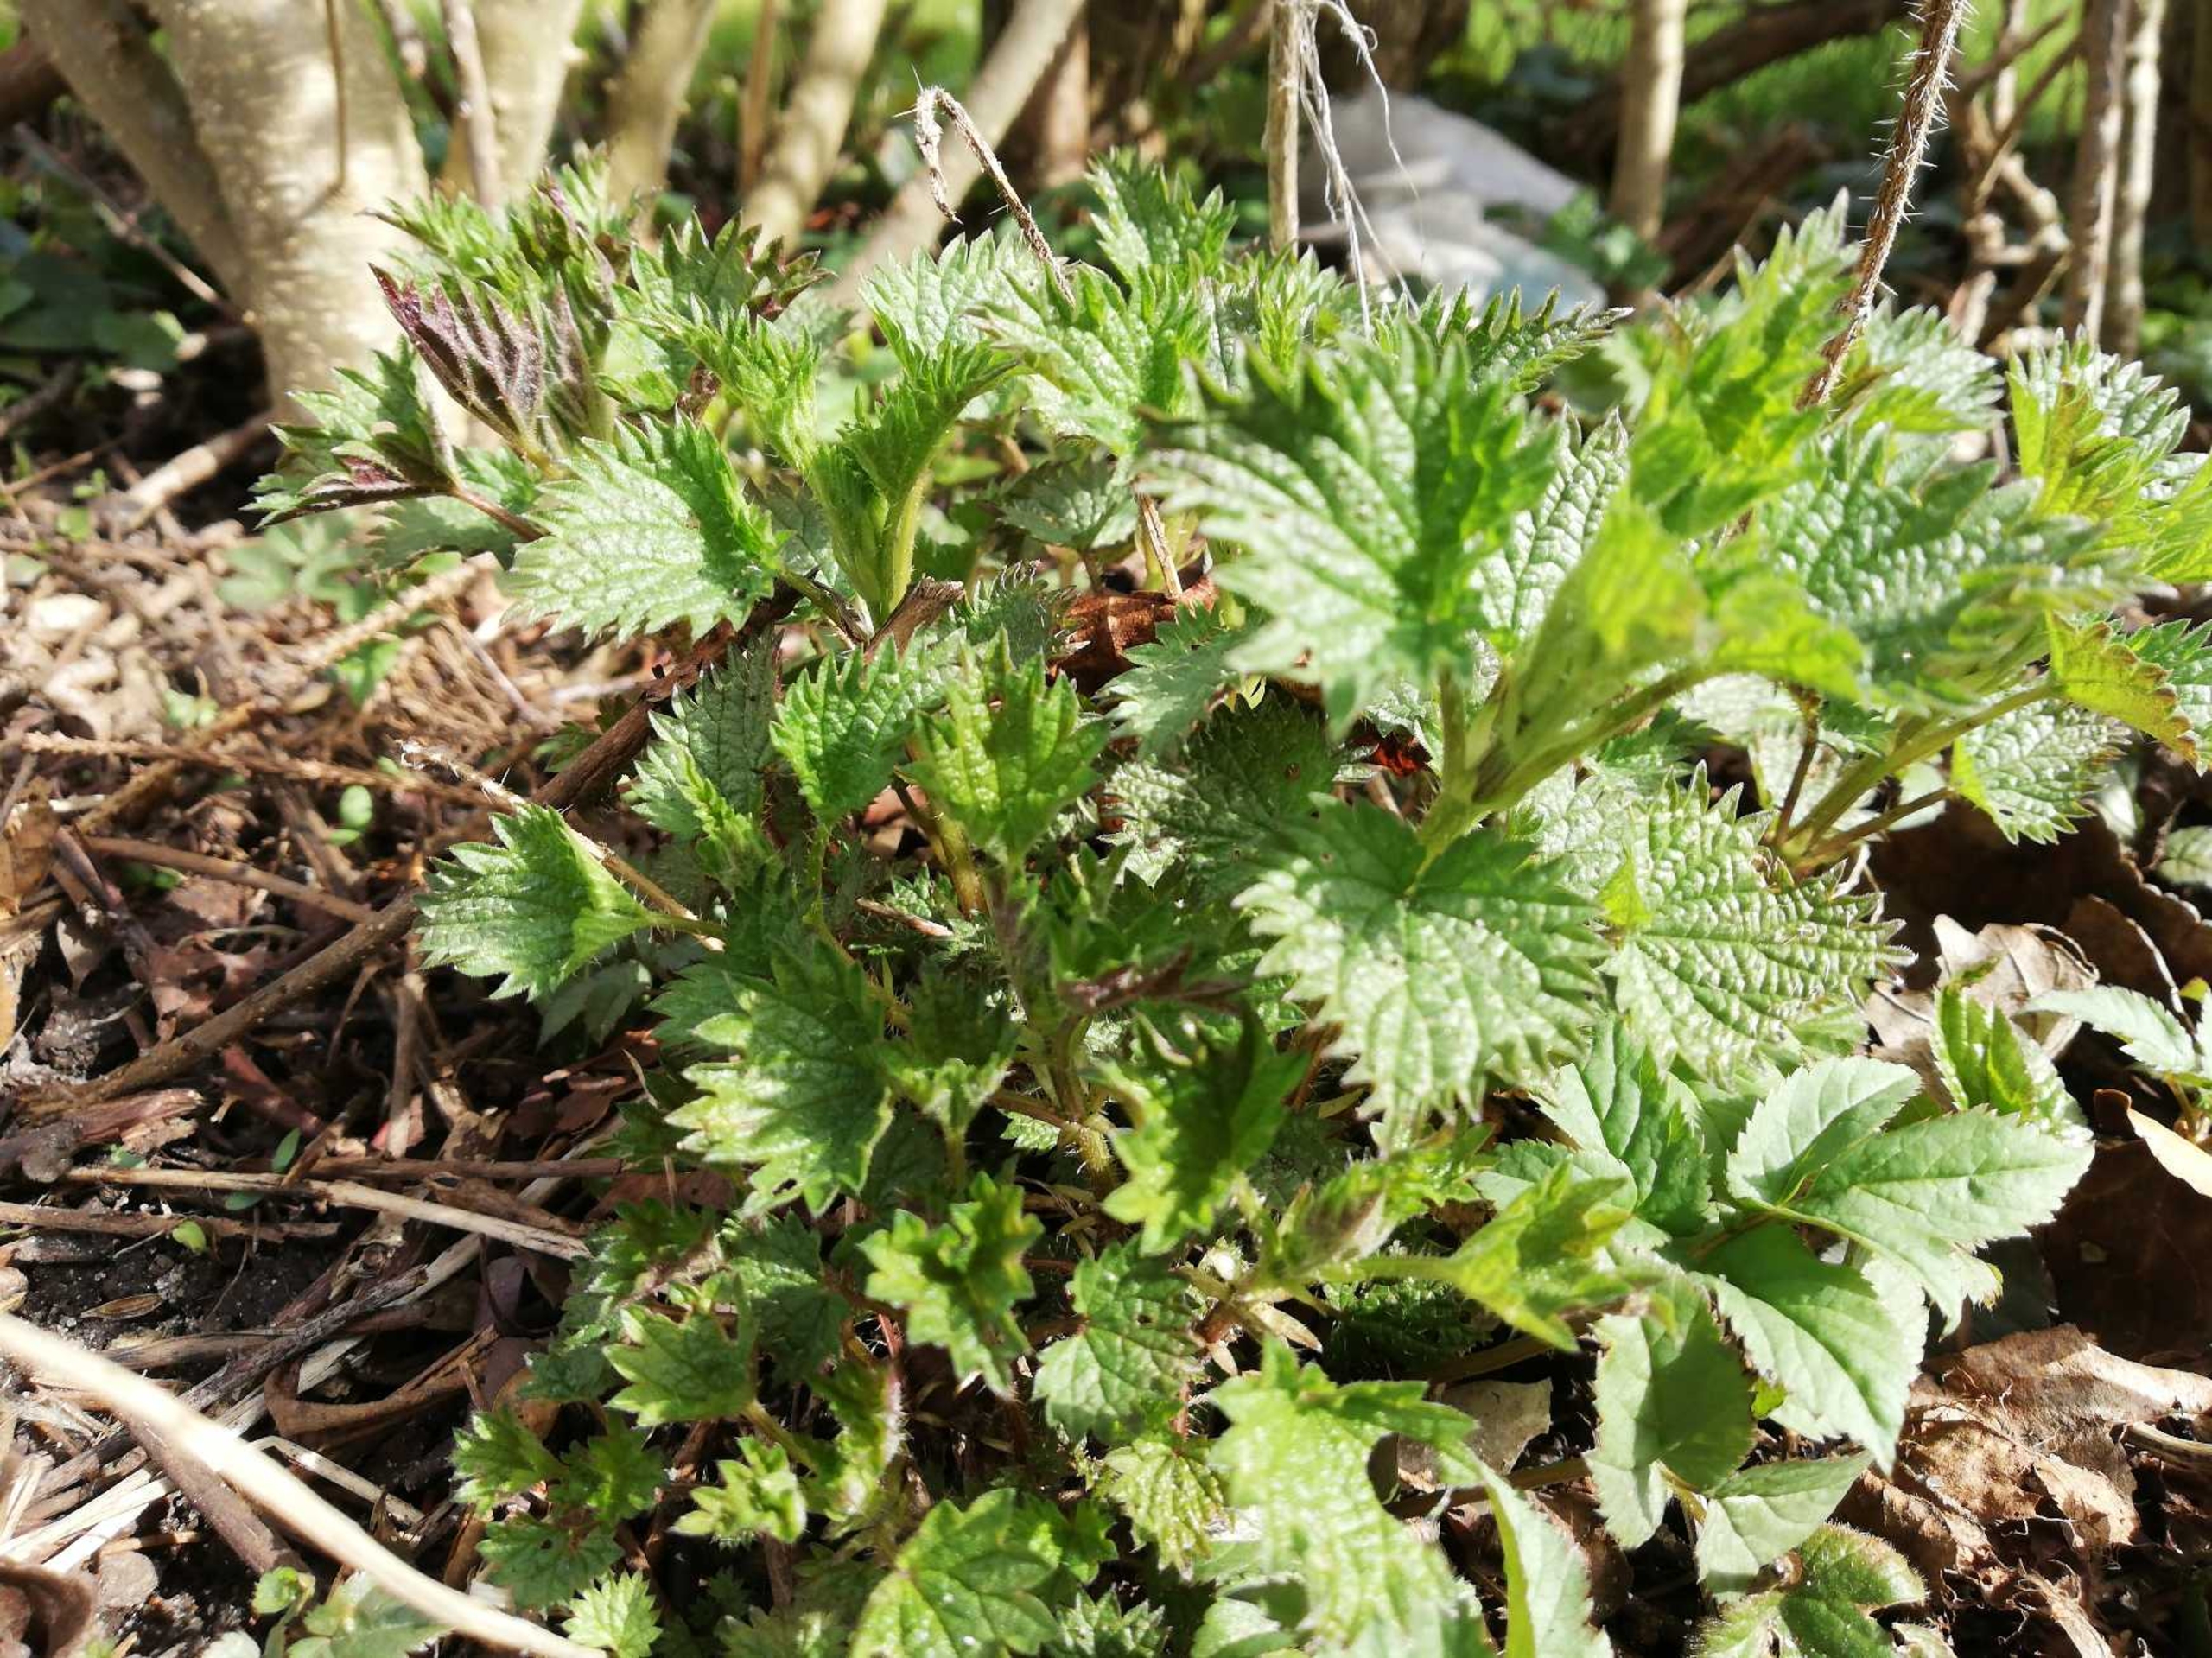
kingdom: Plantae
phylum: Tracheophyta
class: Magnoliopsida
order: Rosales
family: Urticaceae
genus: Urtica
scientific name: Urtica dioica
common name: Stor nælde
